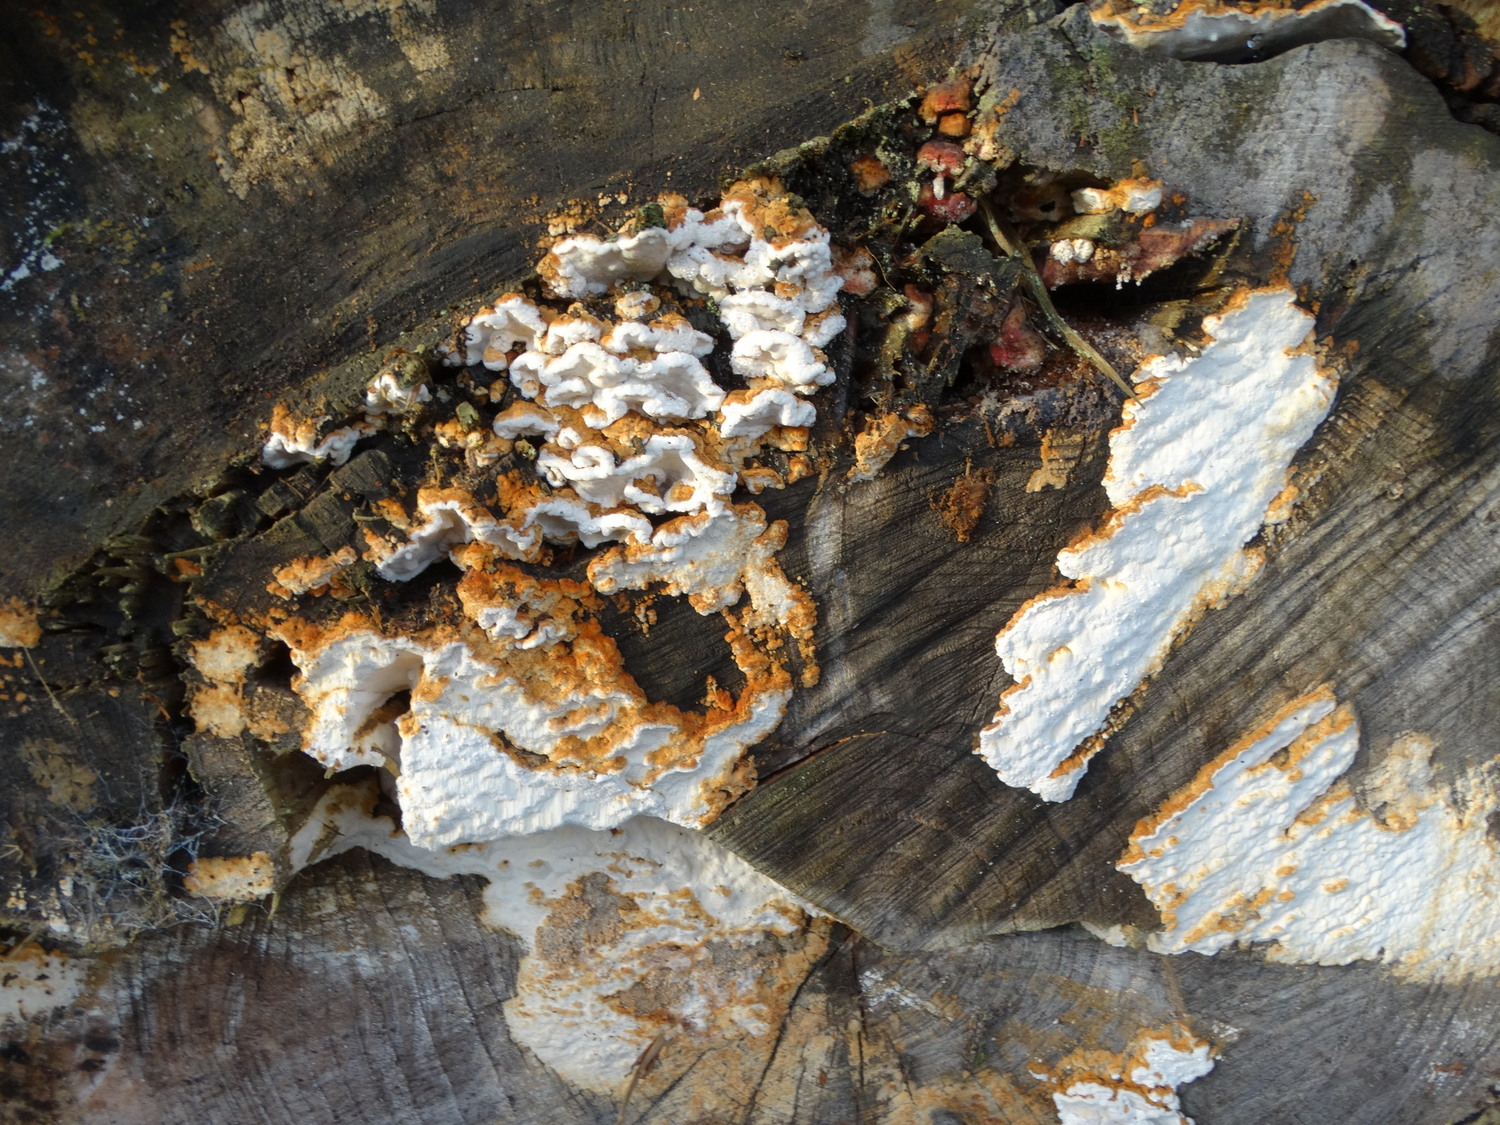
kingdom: Fungi
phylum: Basidiomycota
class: Agaricomycetes
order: Polyporales
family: Fomitopsidaceae
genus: Neoantrodia
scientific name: Neoantrodia serialis
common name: række-sejporesvamp
